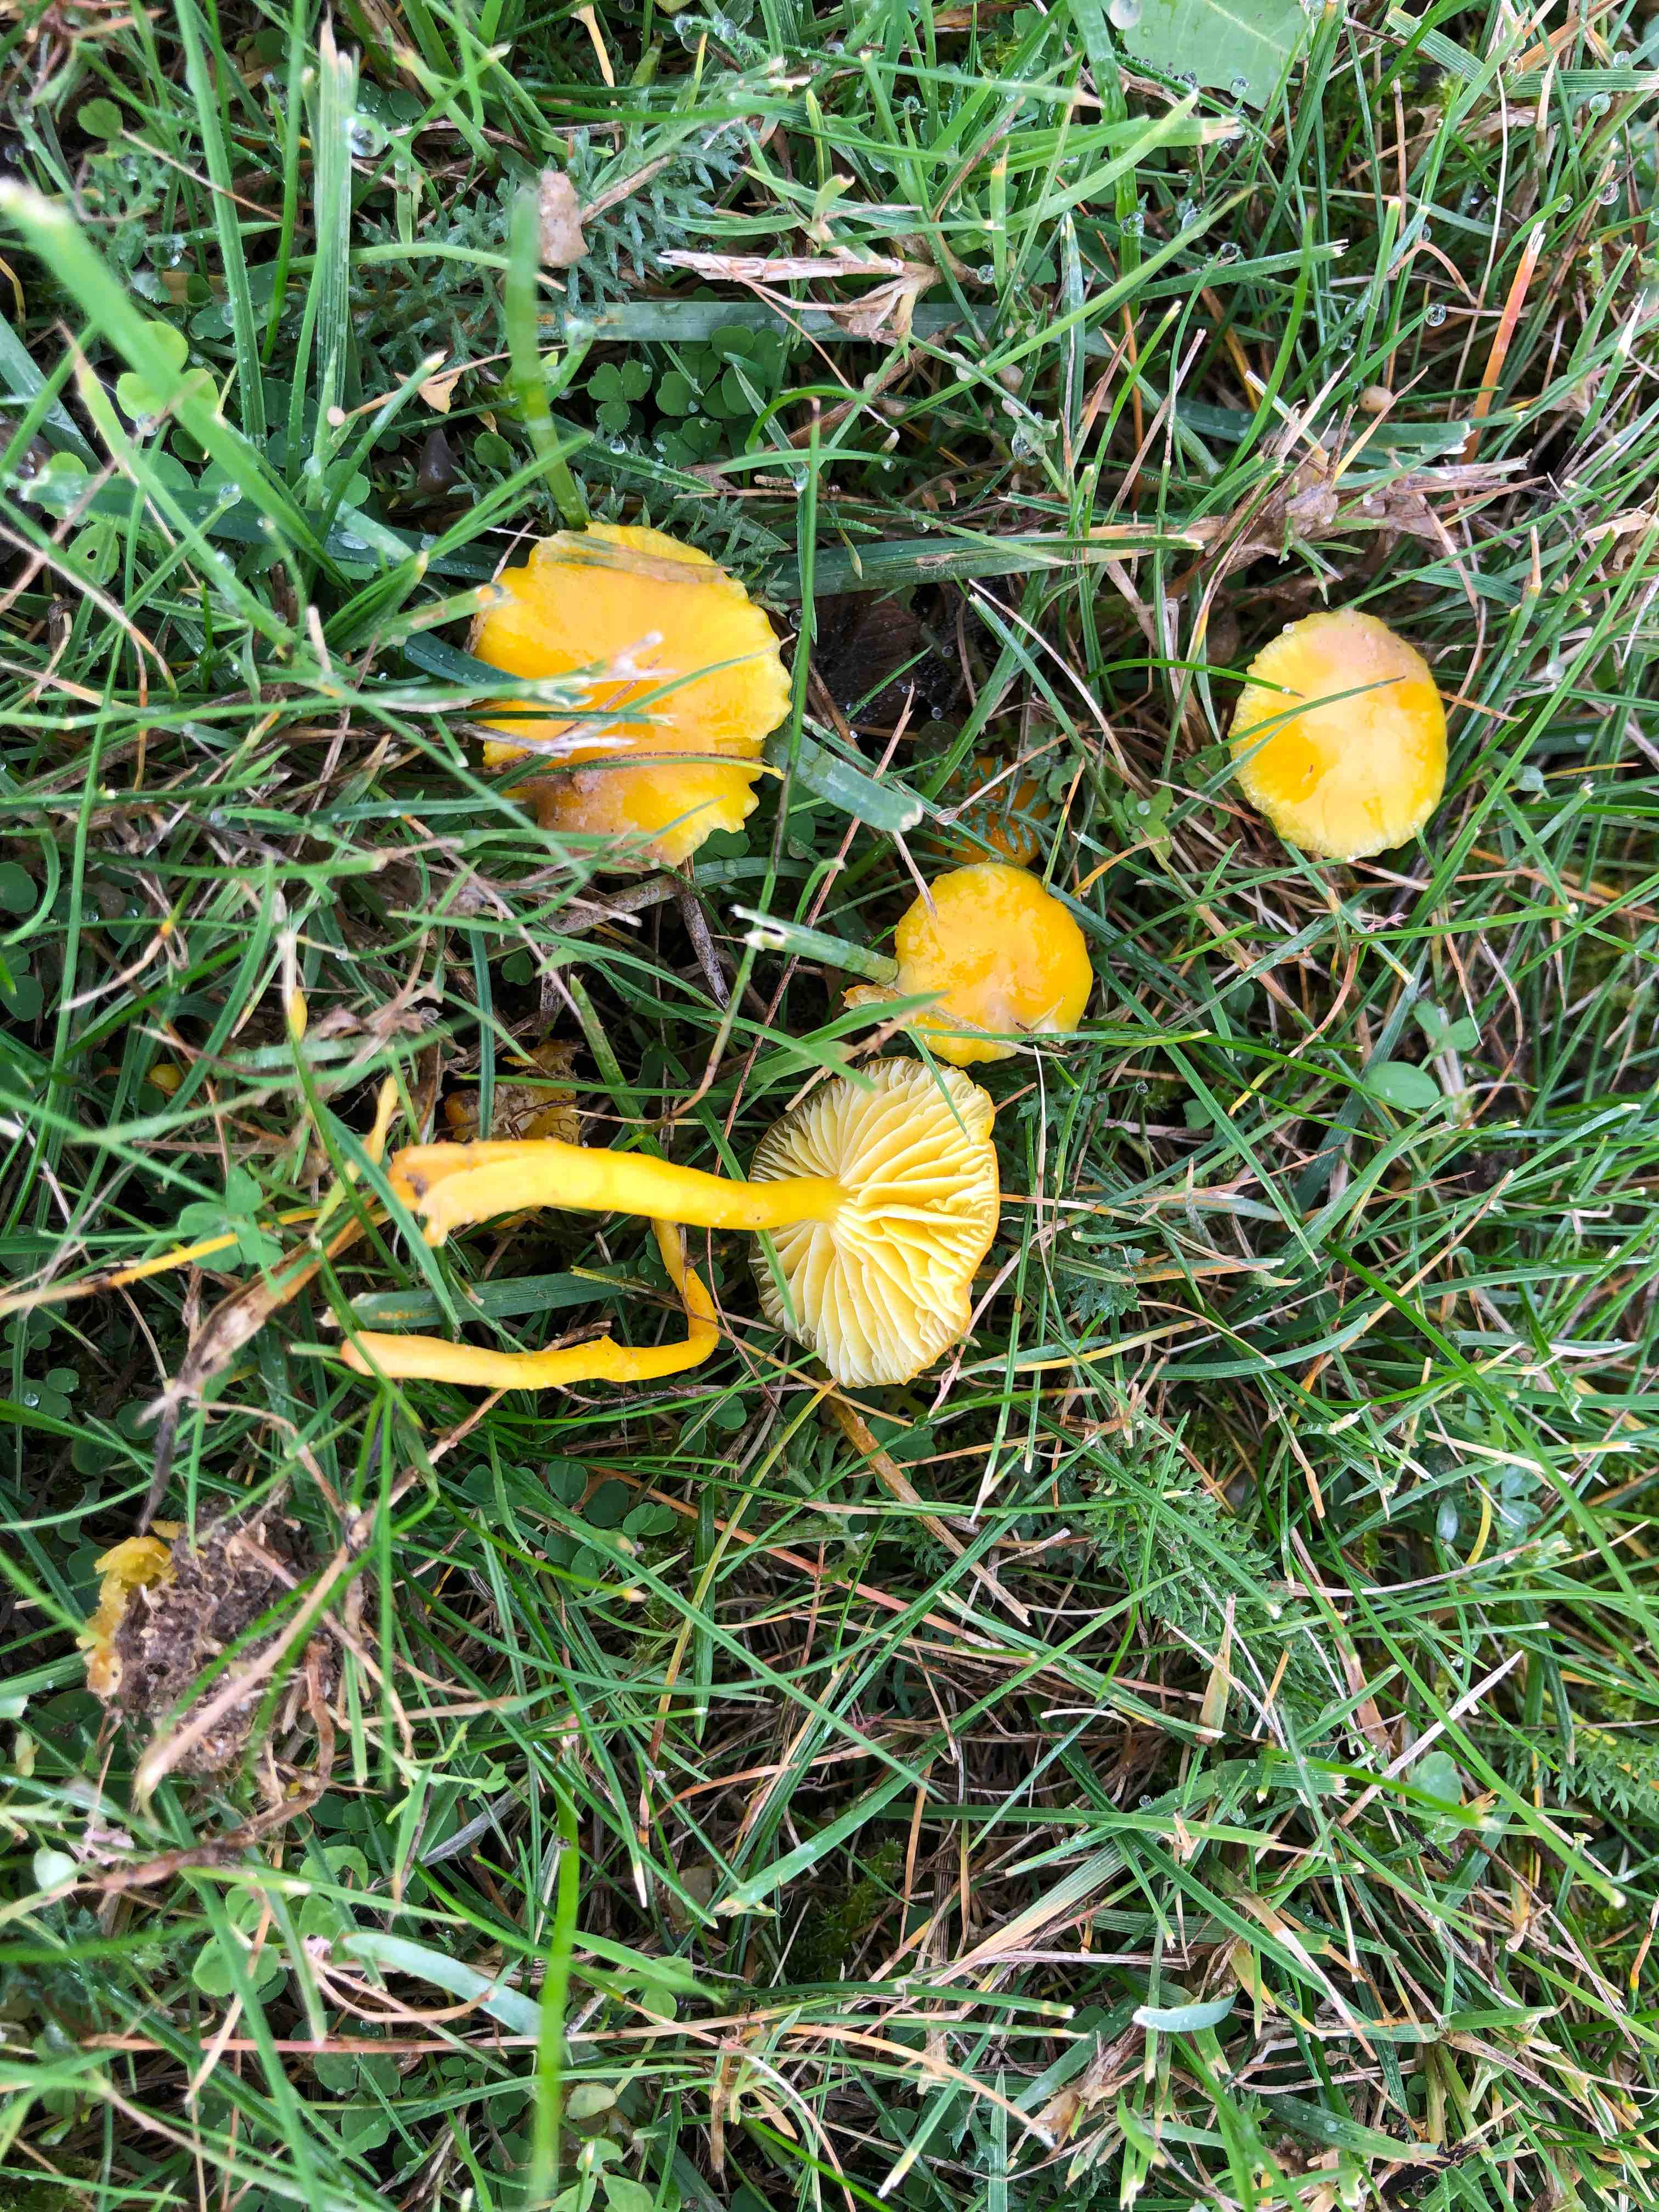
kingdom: Fungi
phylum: Basidiomycota
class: Agaricomycetes
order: Agaricales
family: Hygrophoraceae
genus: Hygrocybe
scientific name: Hygrocybe ceracea
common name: voksgul vokshat
